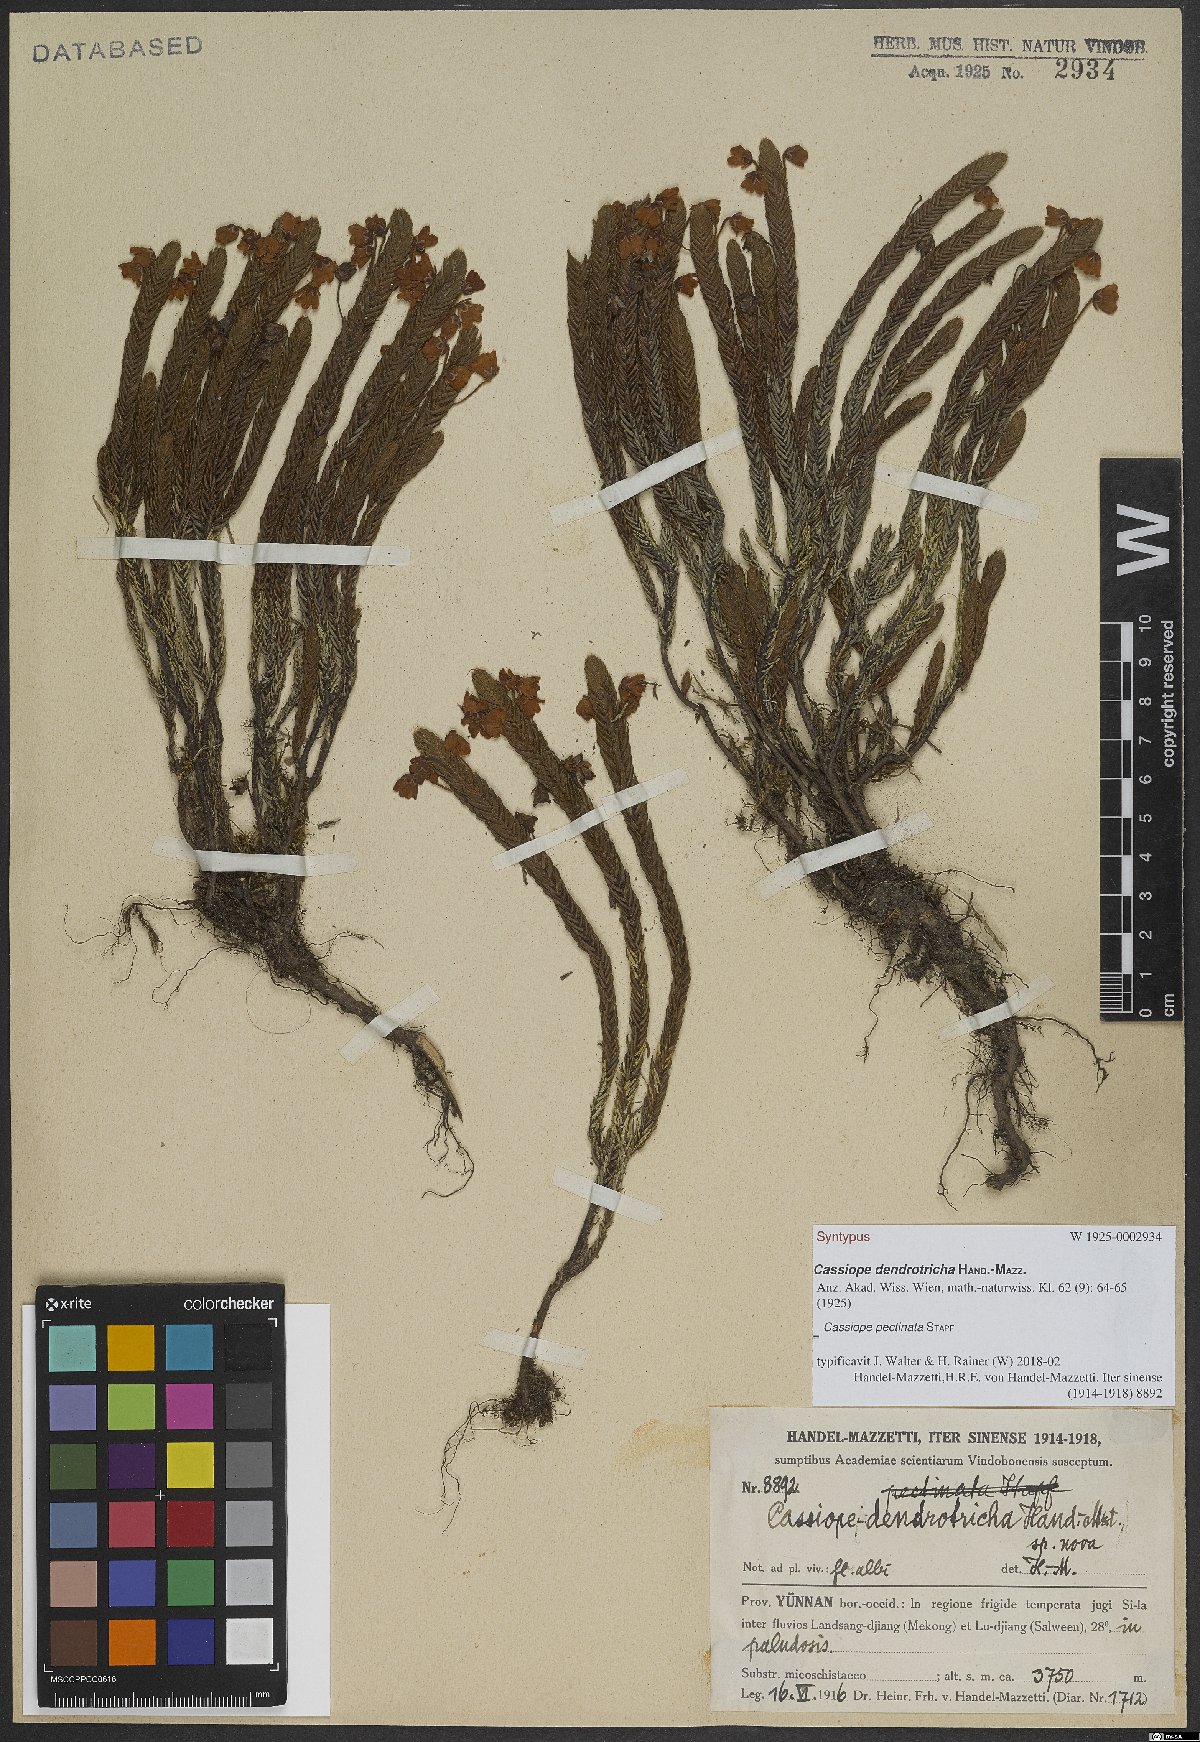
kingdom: Plantae
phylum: Tracheophyta
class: Magnoliopsida
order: Ericales
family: Ericaceae
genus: Cassiope
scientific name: Cassiope pectinata
